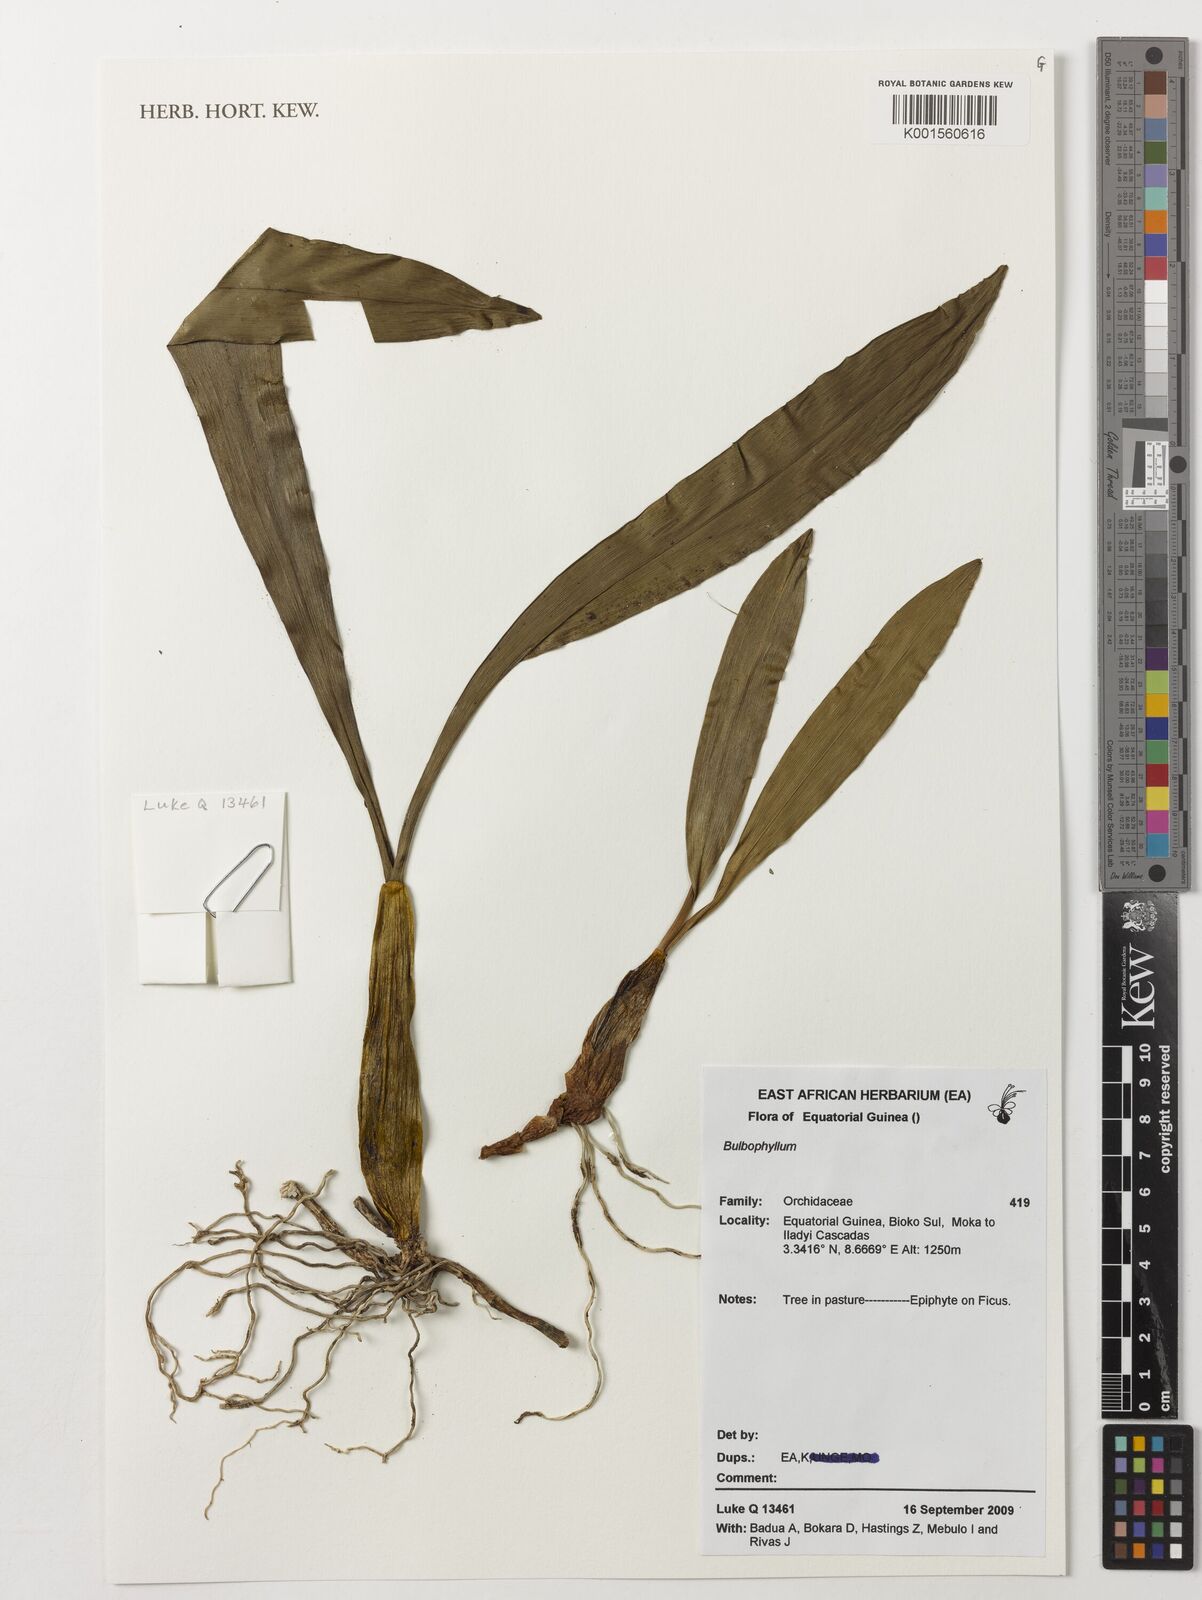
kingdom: Plantae
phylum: Tracheophyta
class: Liliopsida
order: Asparagales
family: Orchidaceae
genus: Bulbophyllum
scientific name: Bulbophyllum
